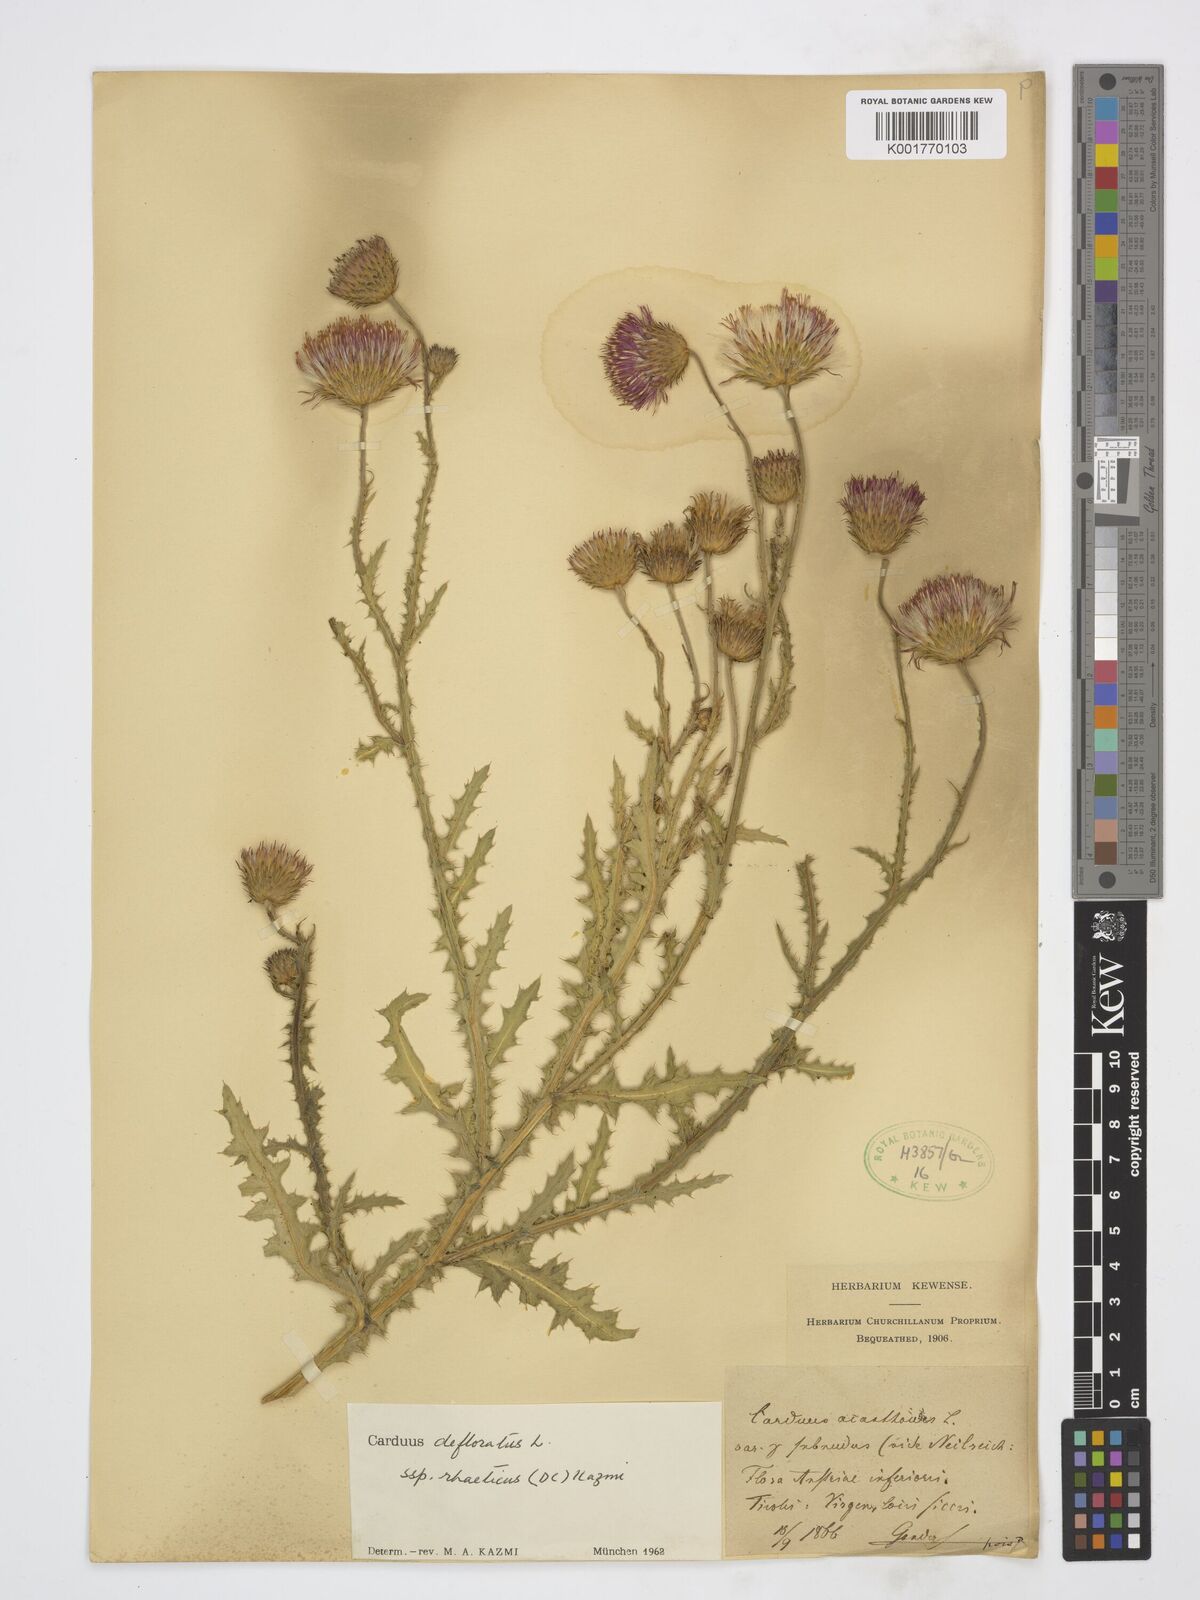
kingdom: Plantae
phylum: Tracheophyta
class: Magnoliopsida
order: Asterales
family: Asteraceae
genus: Carduus
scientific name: Carduus defloratus
